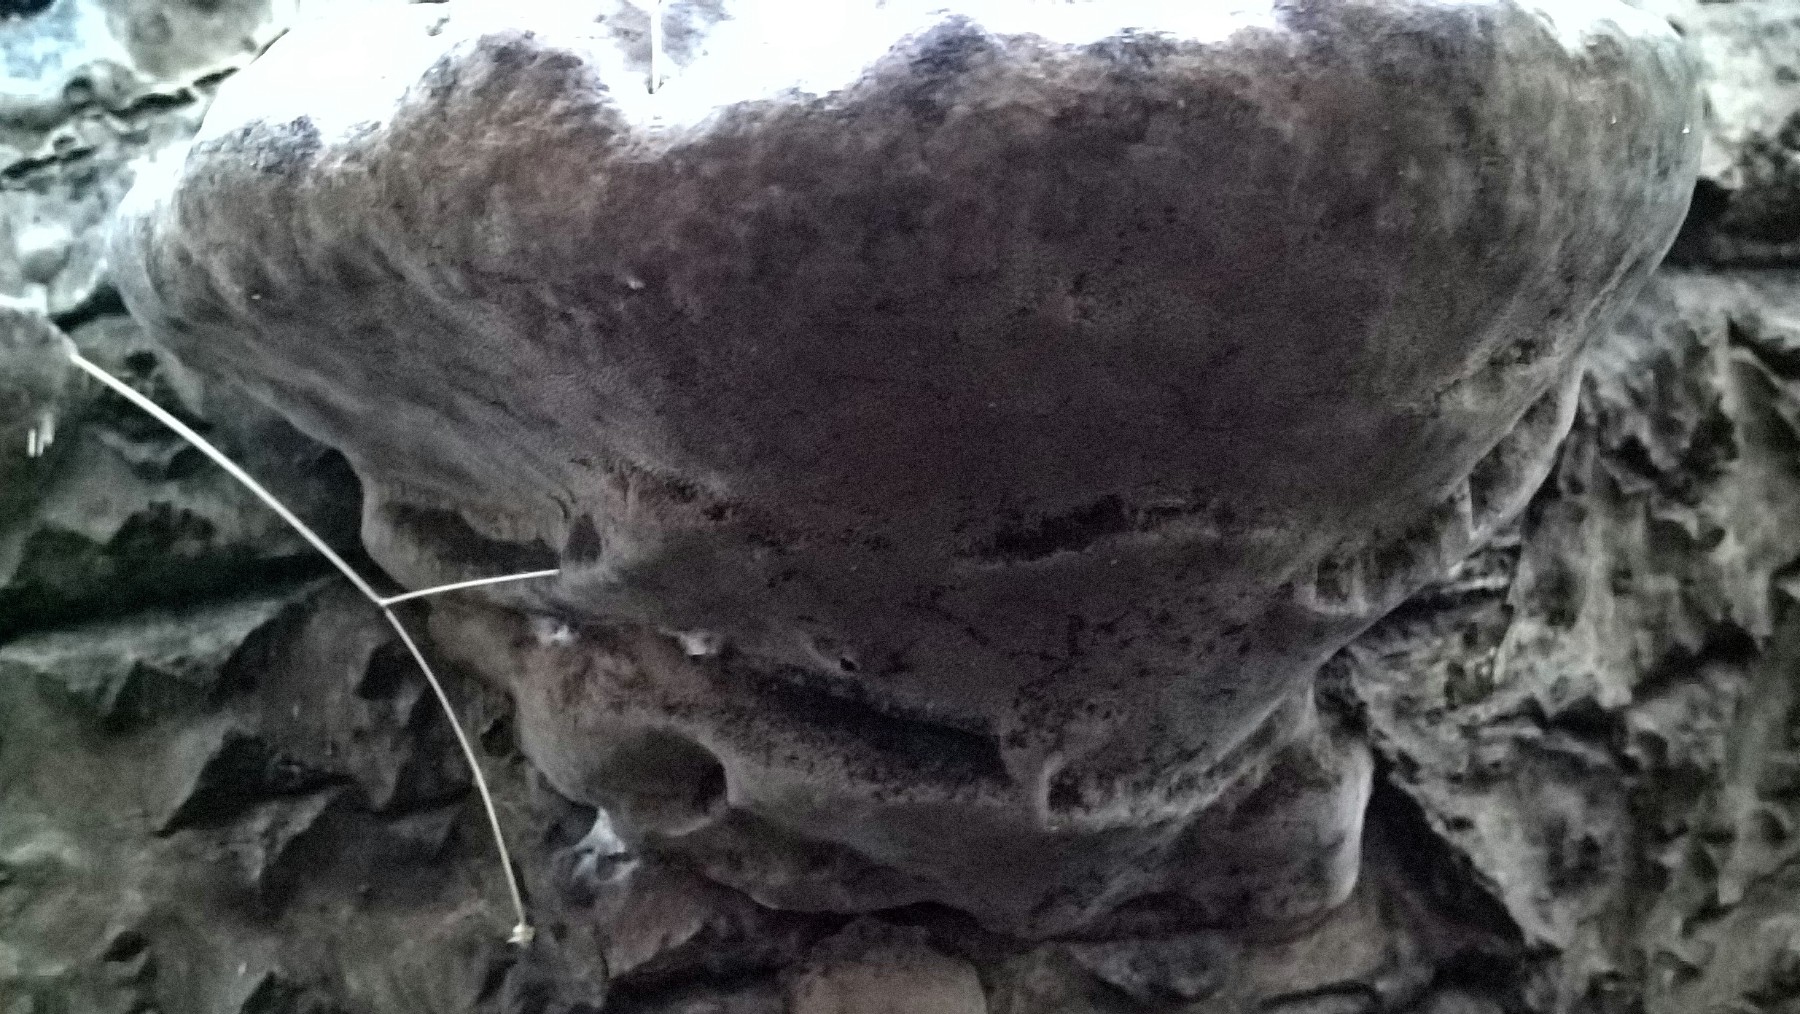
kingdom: Fungi
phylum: Basidiomycota
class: Agaricomycetes
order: Hymenochaetales
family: Hymenochaetaceae
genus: Phellinus
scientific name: Phellinus populicola
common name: poppel-ildporesvamp
